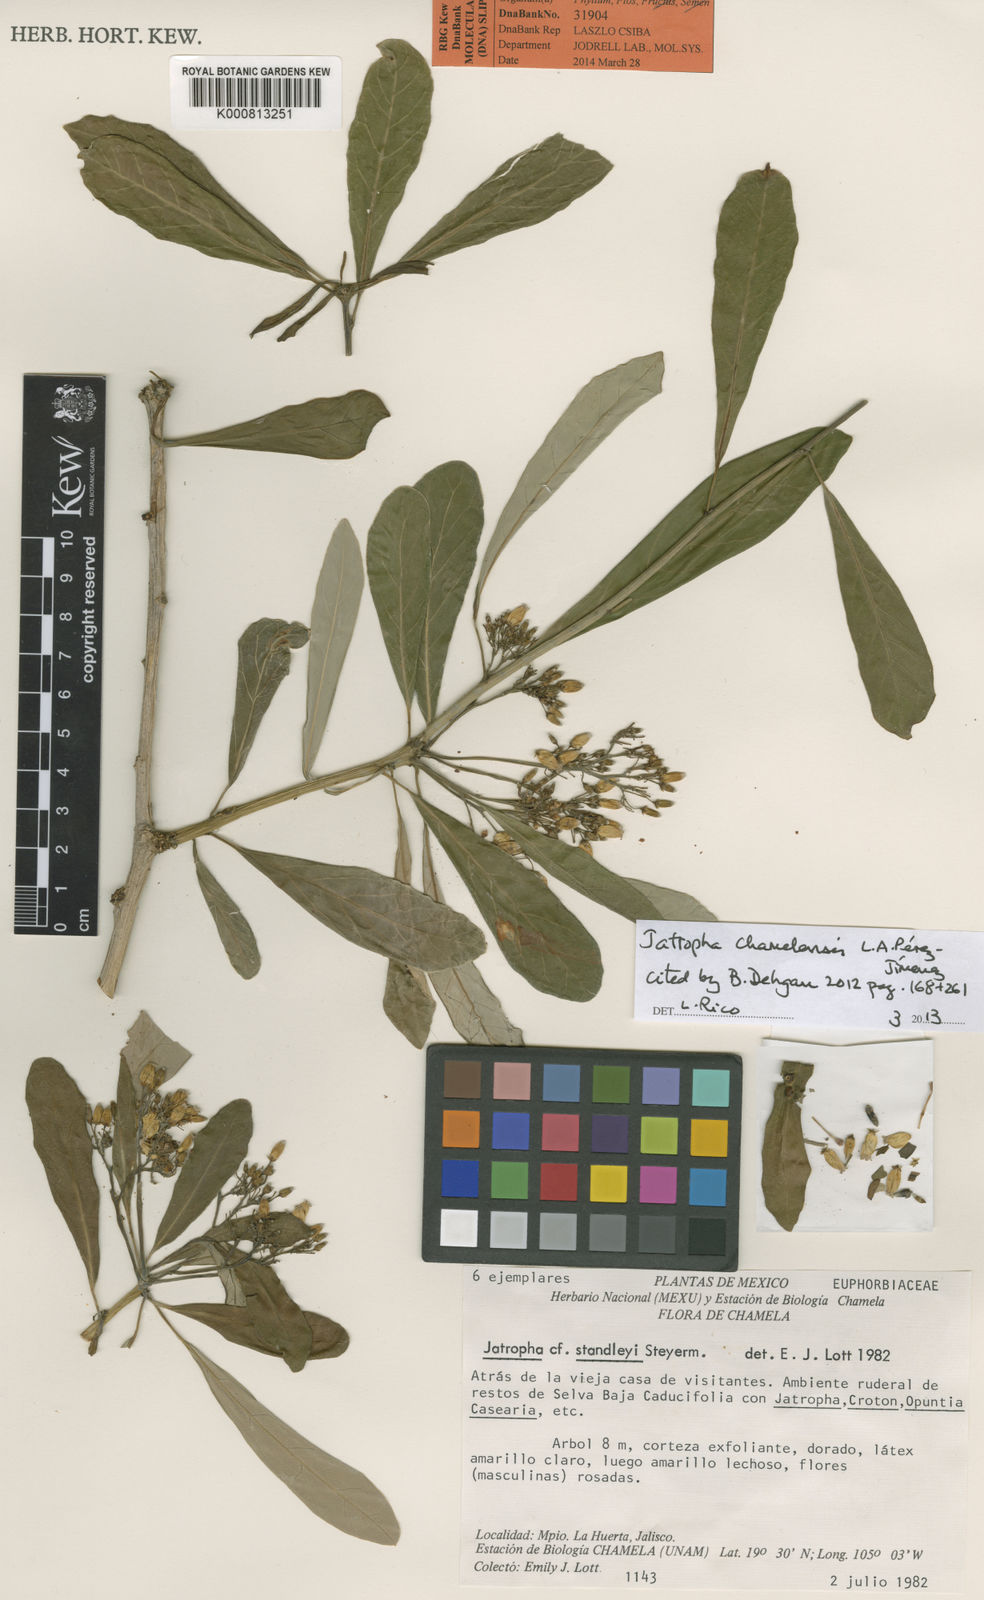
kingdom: Plantae
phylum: Tracheophyta
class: Magnoliopsida
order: Malpighiales
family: Euphorbiaceae
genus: Jatropha
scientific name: Jatropha
